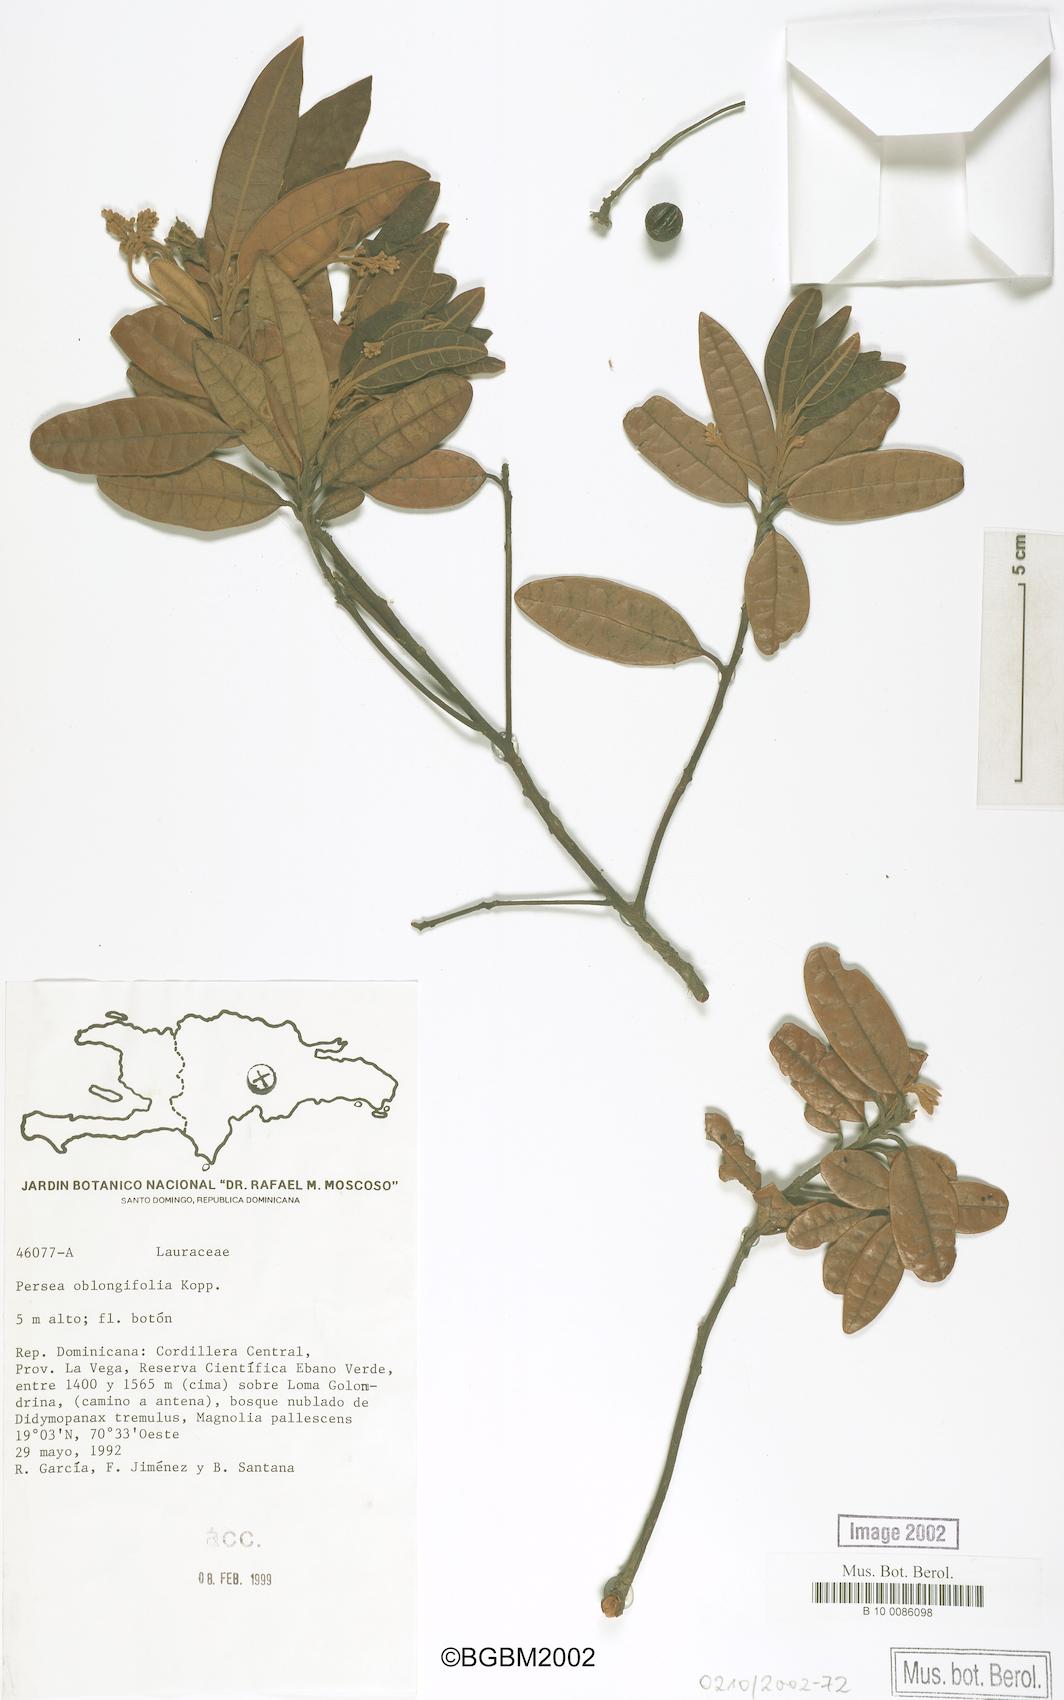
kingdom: Plantae
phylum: Tracheophyta
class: Magnoliopsida
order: Laurales
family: Lauraceae
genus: Persea
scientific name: Persea oblongifolia
